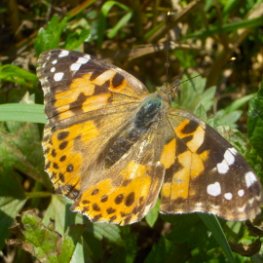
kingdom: Animalia
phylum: Arthropoda
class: Insecta
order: Lepidoptera
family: Nymphalidae
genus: Vanessa
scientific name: Vanessa cardui
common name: Painted Lady
